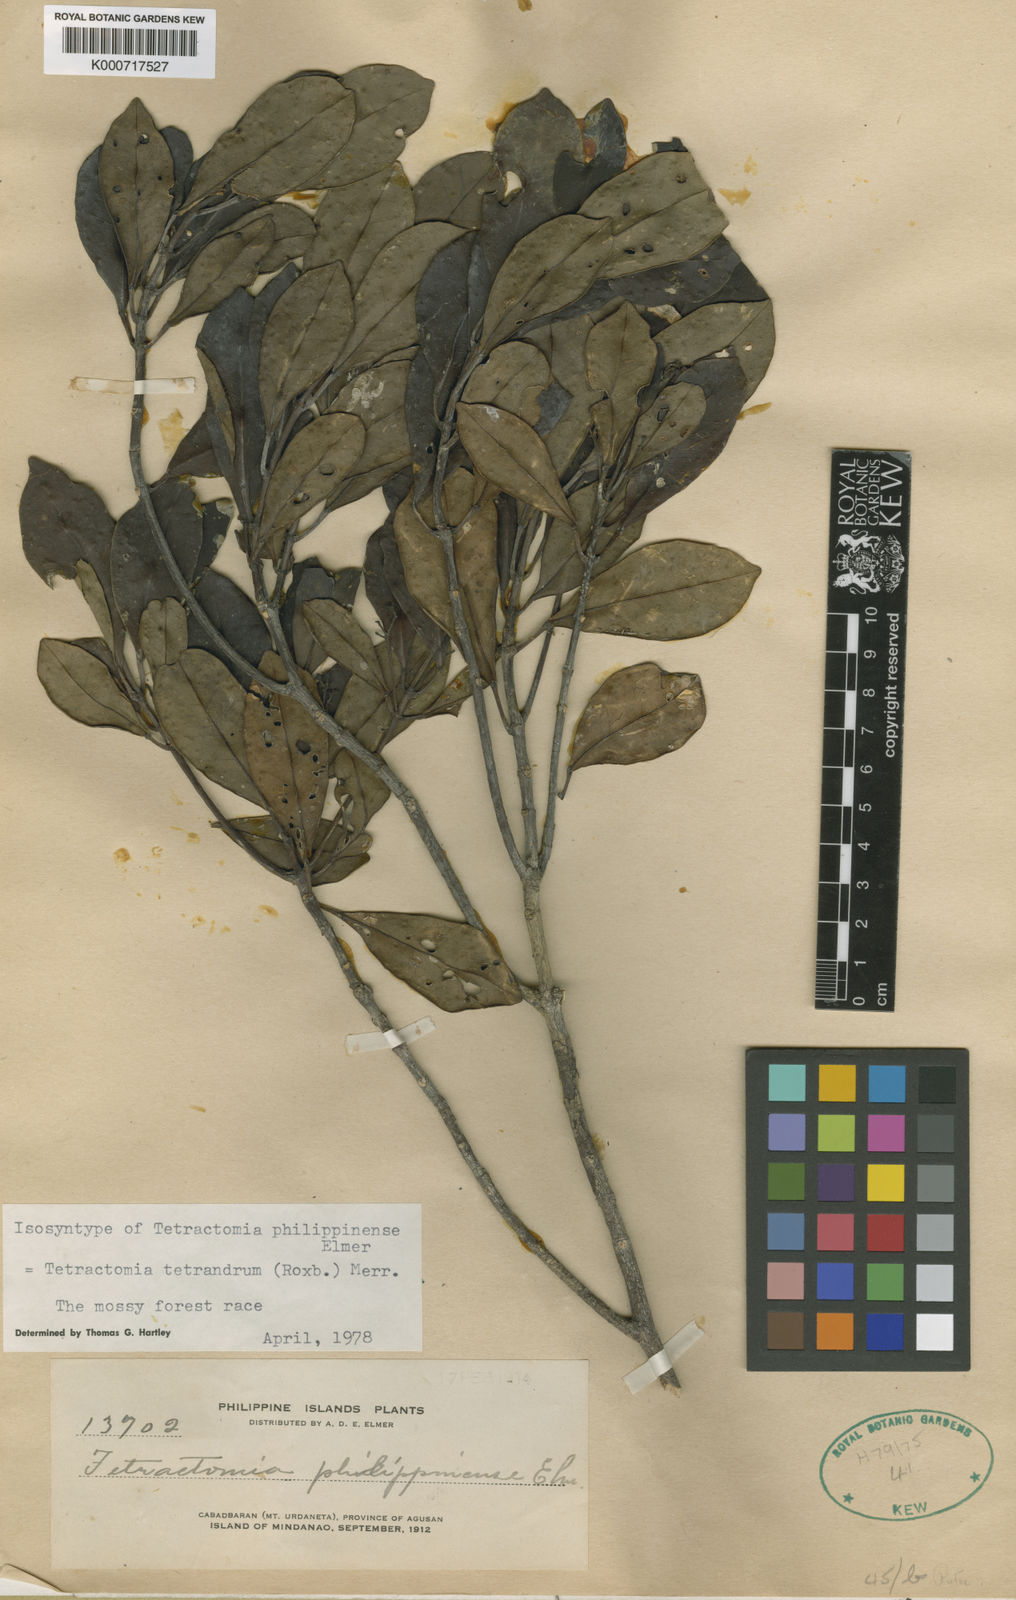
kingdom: Plantae
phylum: Tracheophyta
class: Magnoliopsida
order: Sapindales
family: Rutaceae
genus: Tetractomia
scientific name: Tetractomia tetrandra
